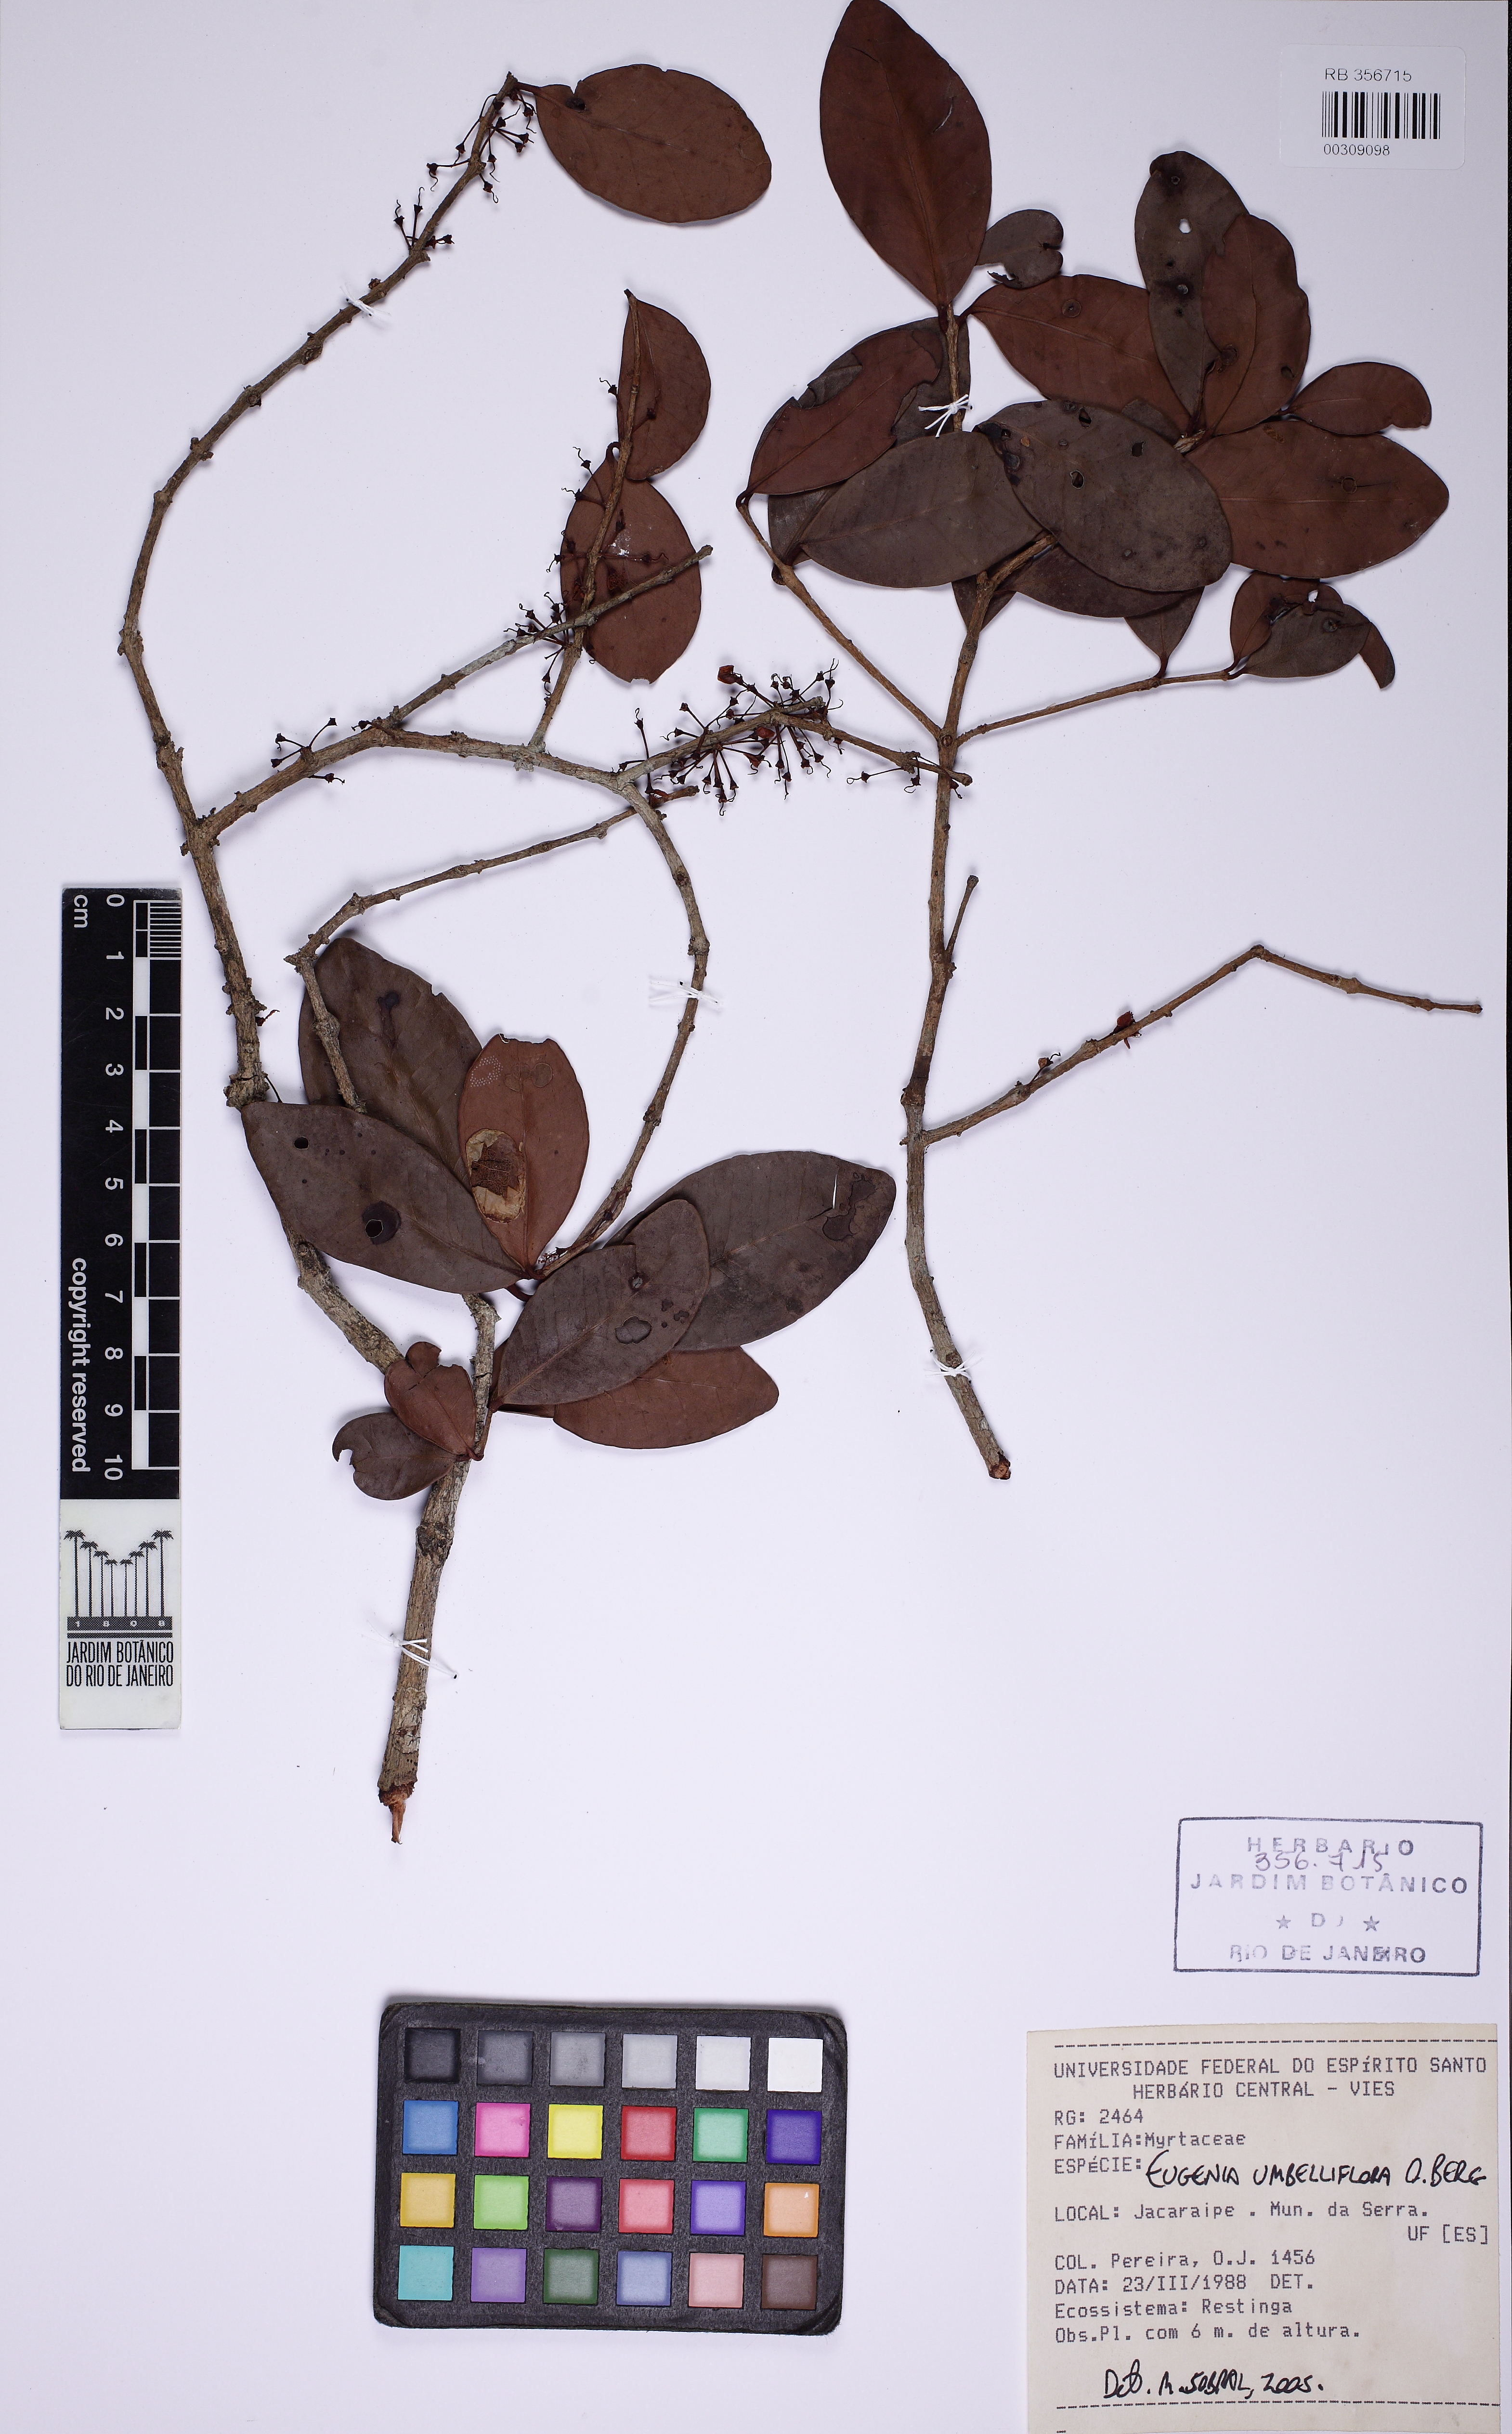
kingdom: Plantae
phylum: Tracheophyta
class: Magnoliopsida
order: Myrtales
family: Myrtaceae
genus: Eugenia
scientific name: Eugenia umbelliflora
